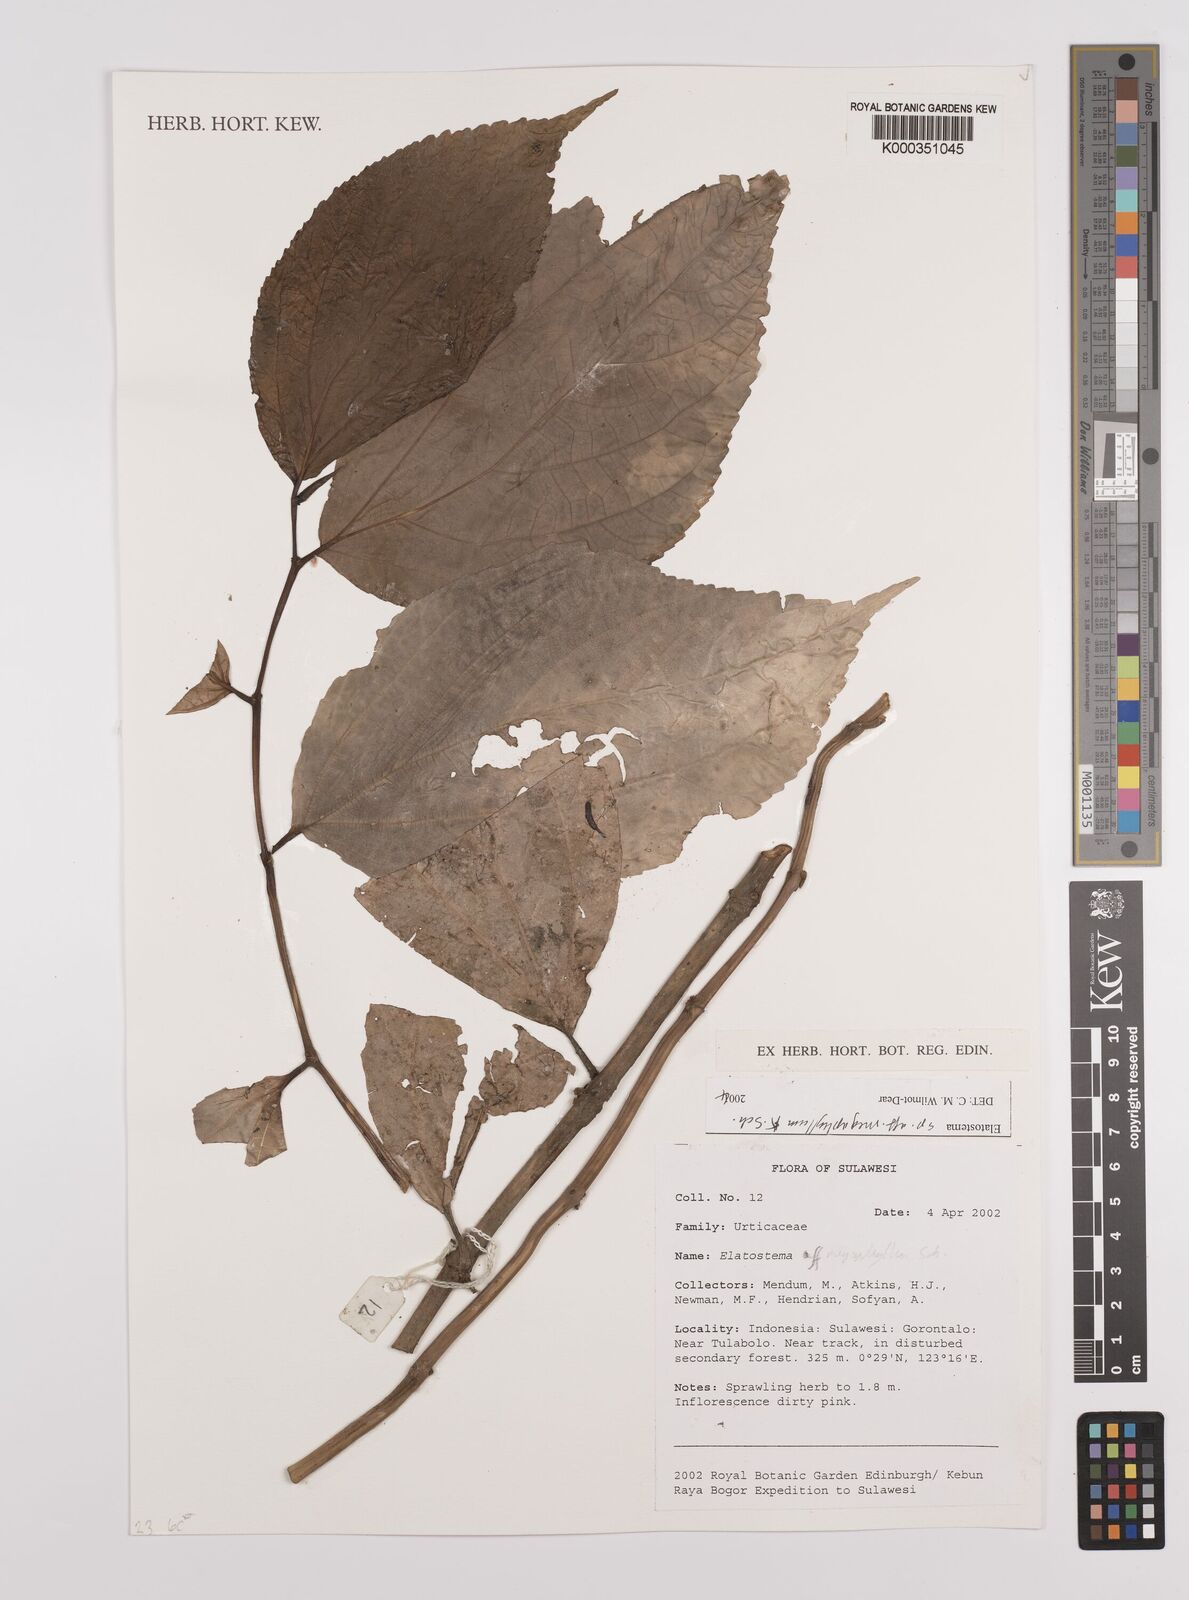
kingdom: Plantae
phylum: Tracheophyta
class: Magnoliopsida
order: Rosales
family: Urticaceae
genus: Elatostema
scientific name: Elatostema megaphyllum
